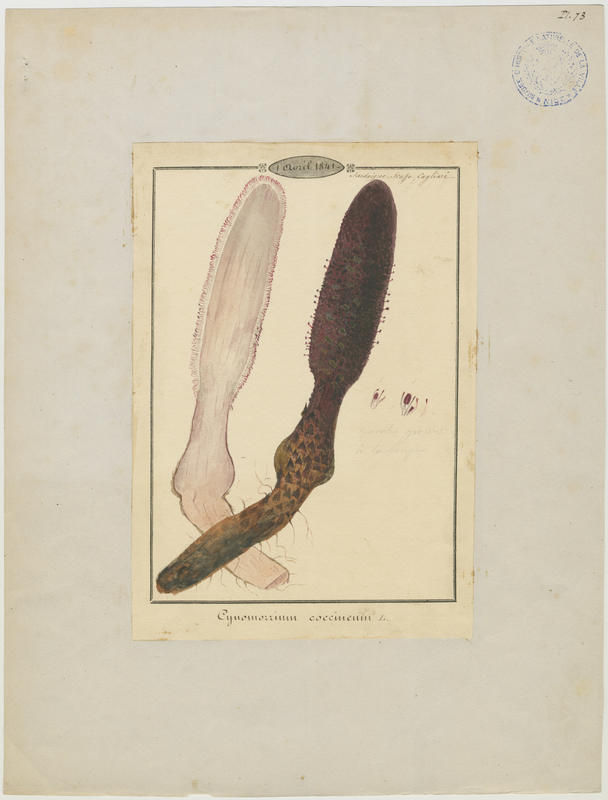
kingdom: Plantae
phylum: Tracheophyta
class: Magnoliopsida
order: Saxifragales
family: Cynomoriaceae
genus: Cynomorium
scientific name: Cynomorium coccineum
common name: Maltese-mushroom
